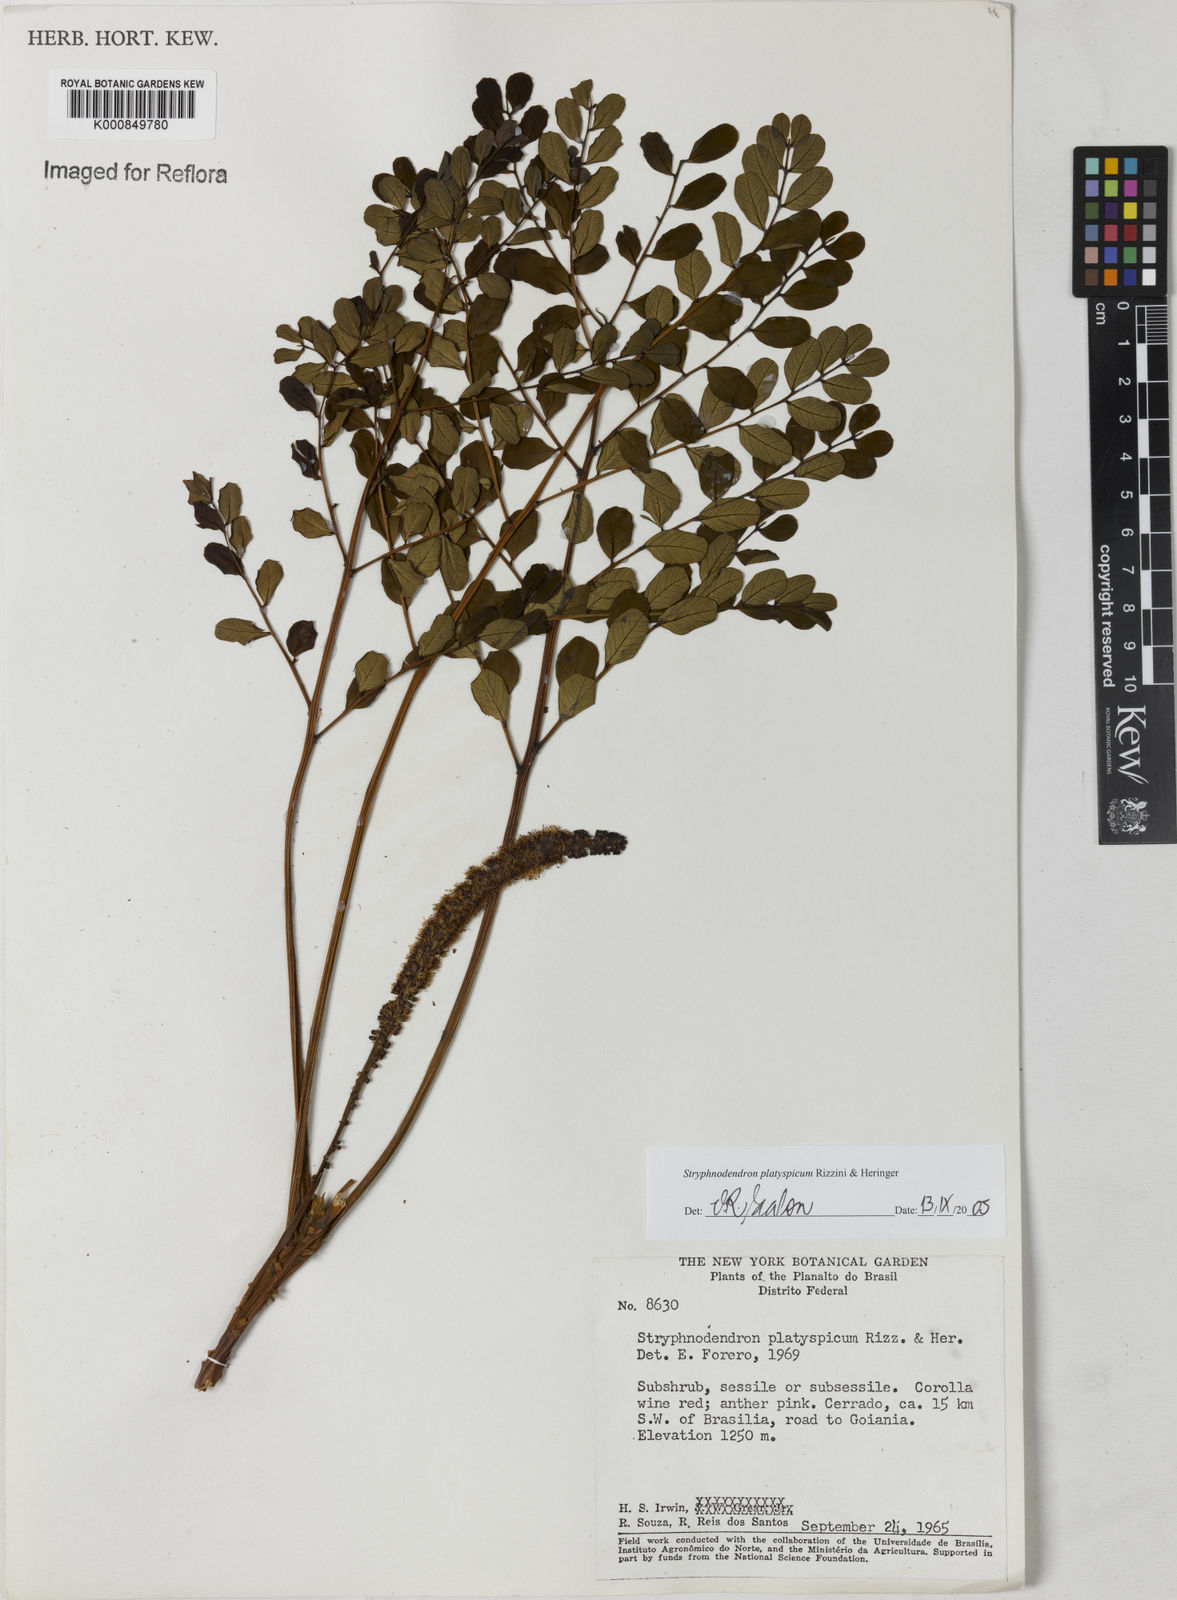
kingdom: Plantae
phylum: Tracheophyta
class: Magnoliopsida
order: Fabales
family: Fabaceae
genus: Stryphnodendron
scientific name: Stryphnodendron
